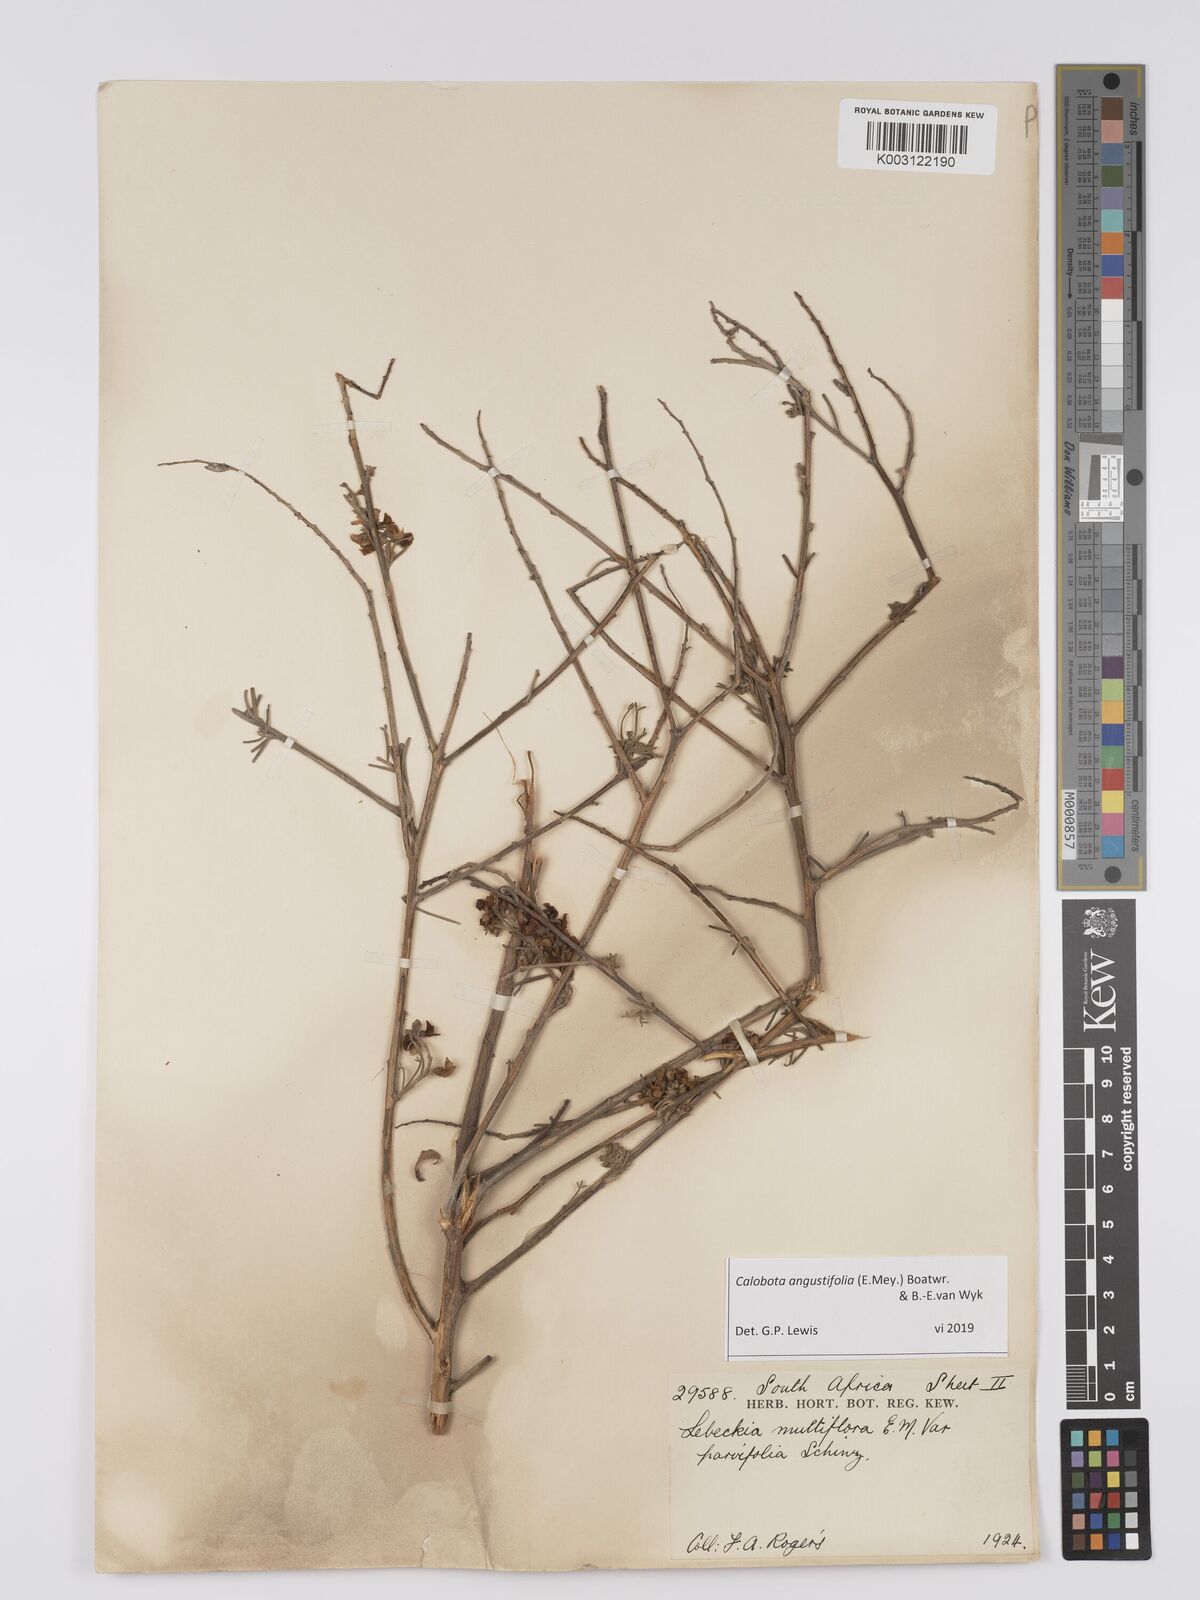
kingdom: Plantae
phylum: Tracheophyta
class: Magnoliopsida
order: Fabales
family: Fabaceae
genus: Calobota
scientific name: Calobota angustifolia
